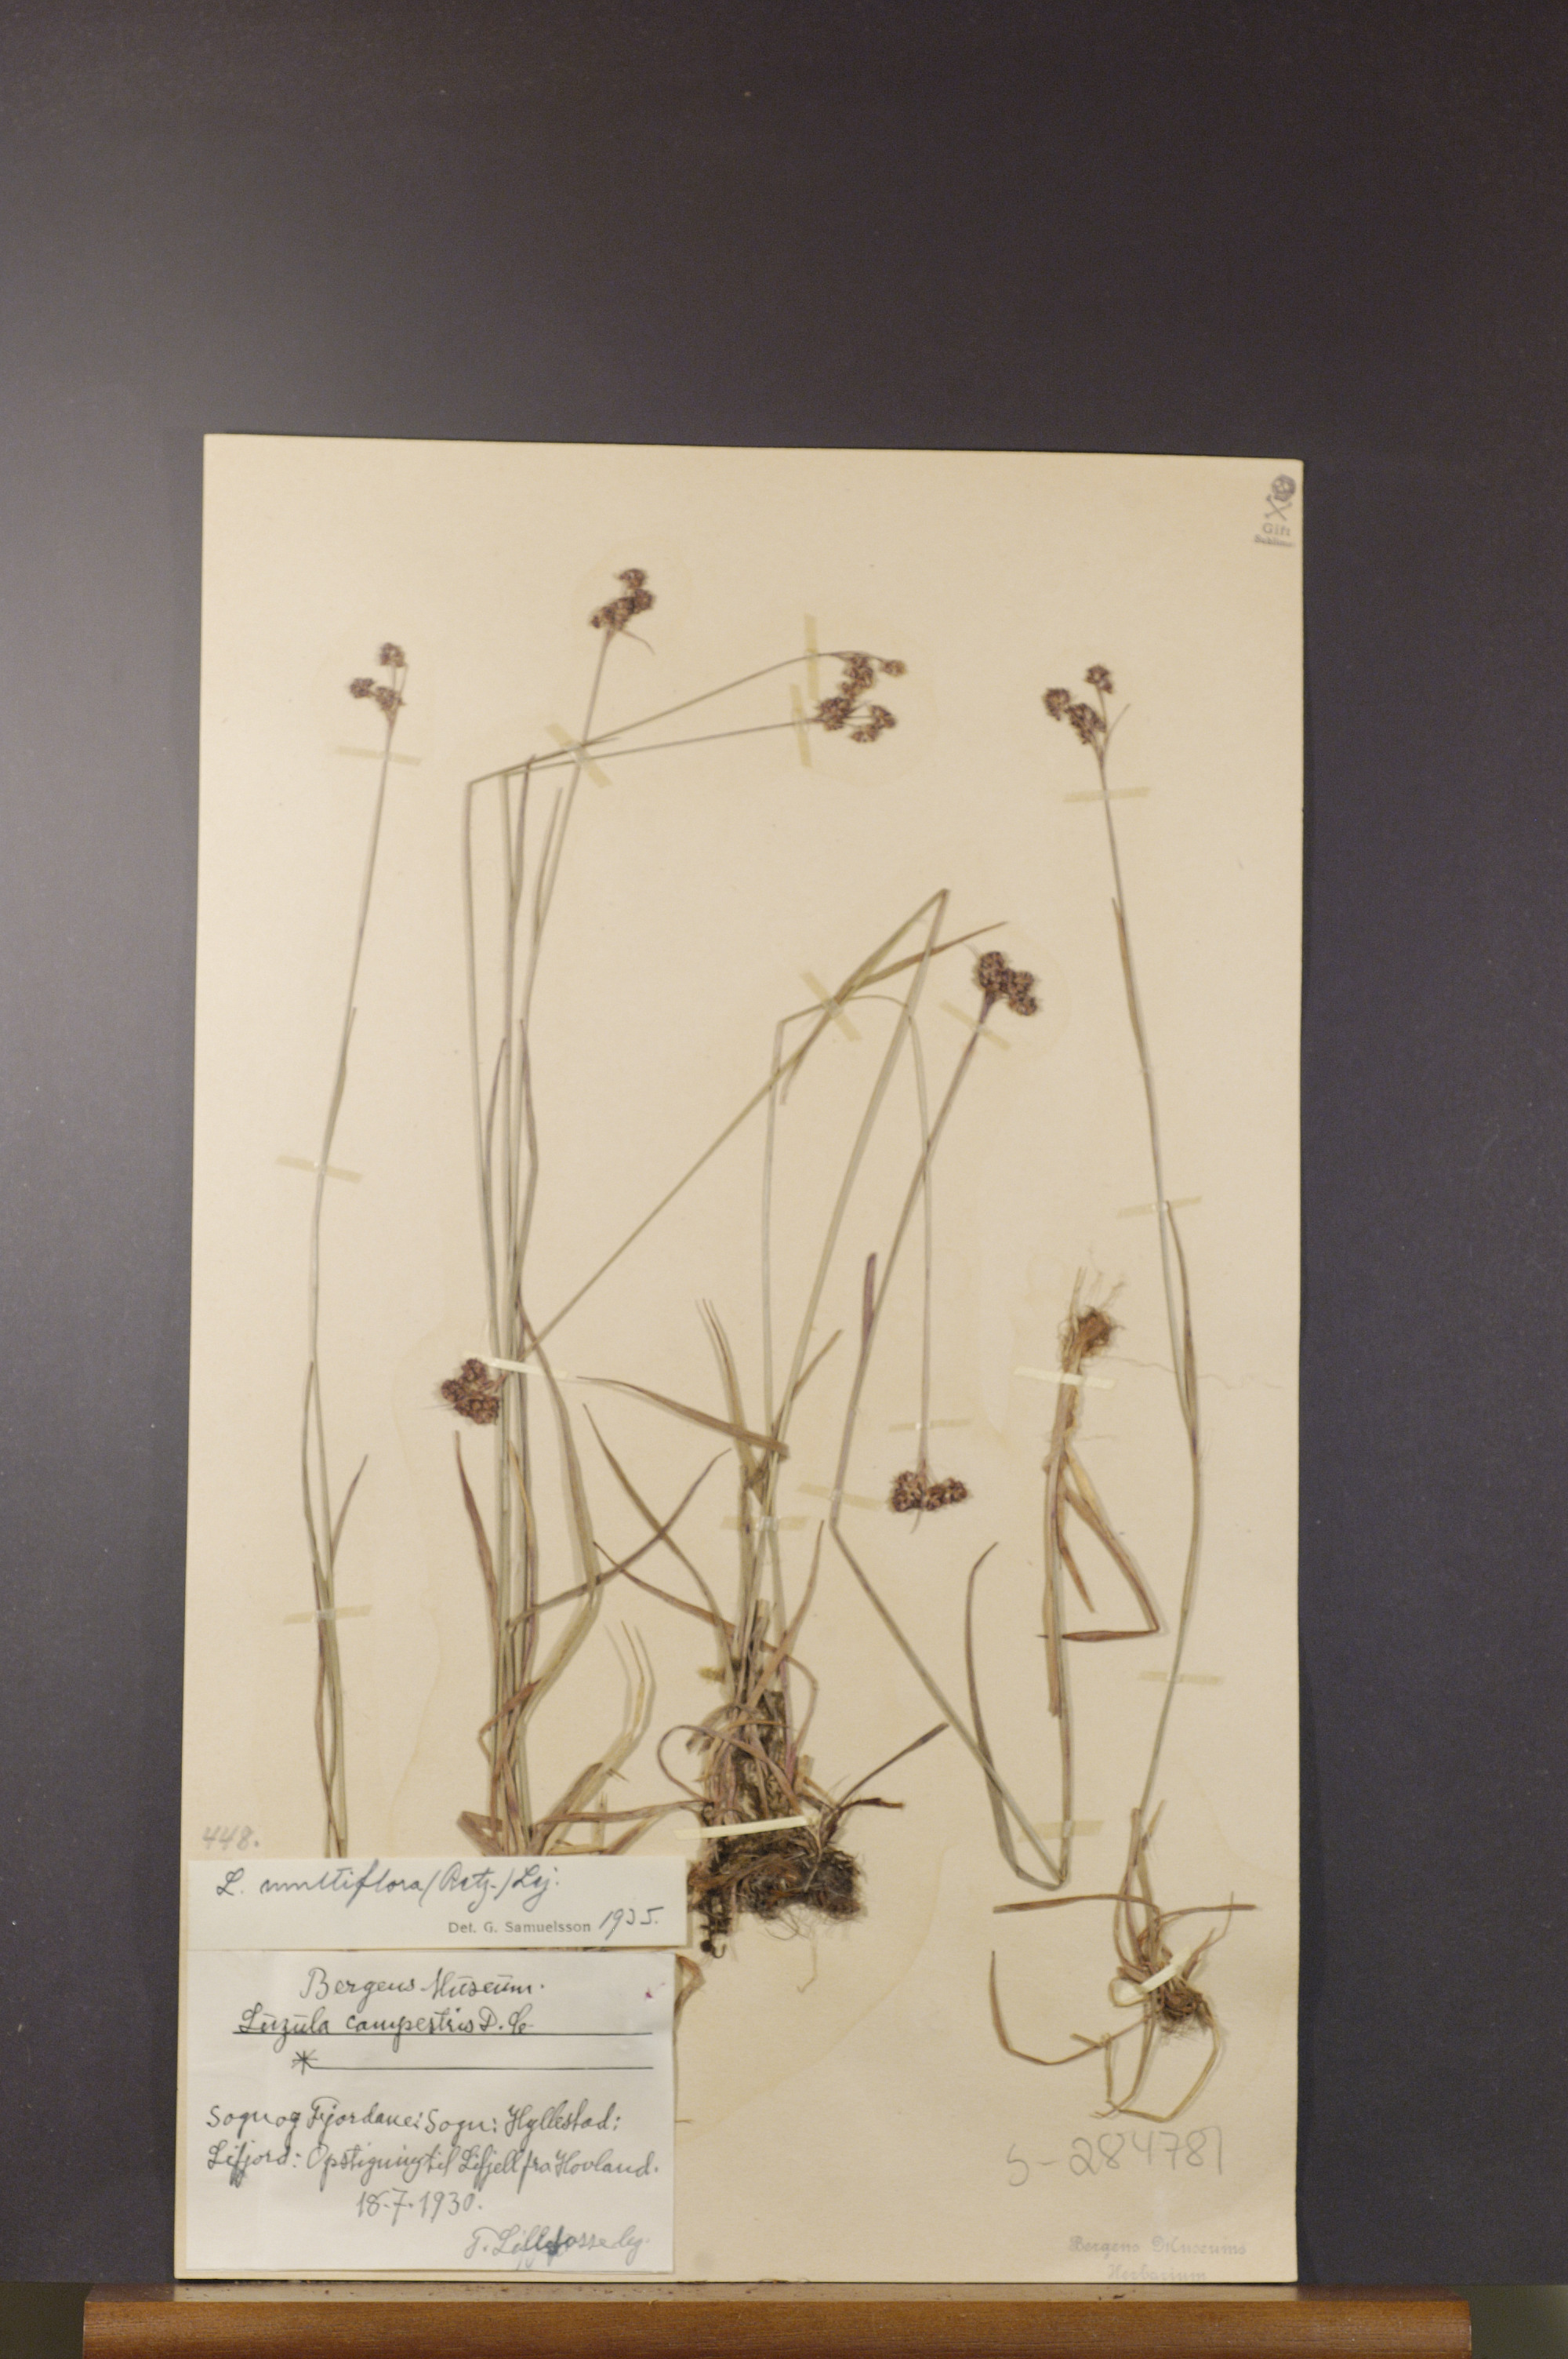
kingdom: Plantae
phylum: Tracheophyta
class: Liliopsida
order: Poales
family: Juncaceae
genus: Luzula
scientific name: Luzula multiflora
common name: Heath wood-rush
